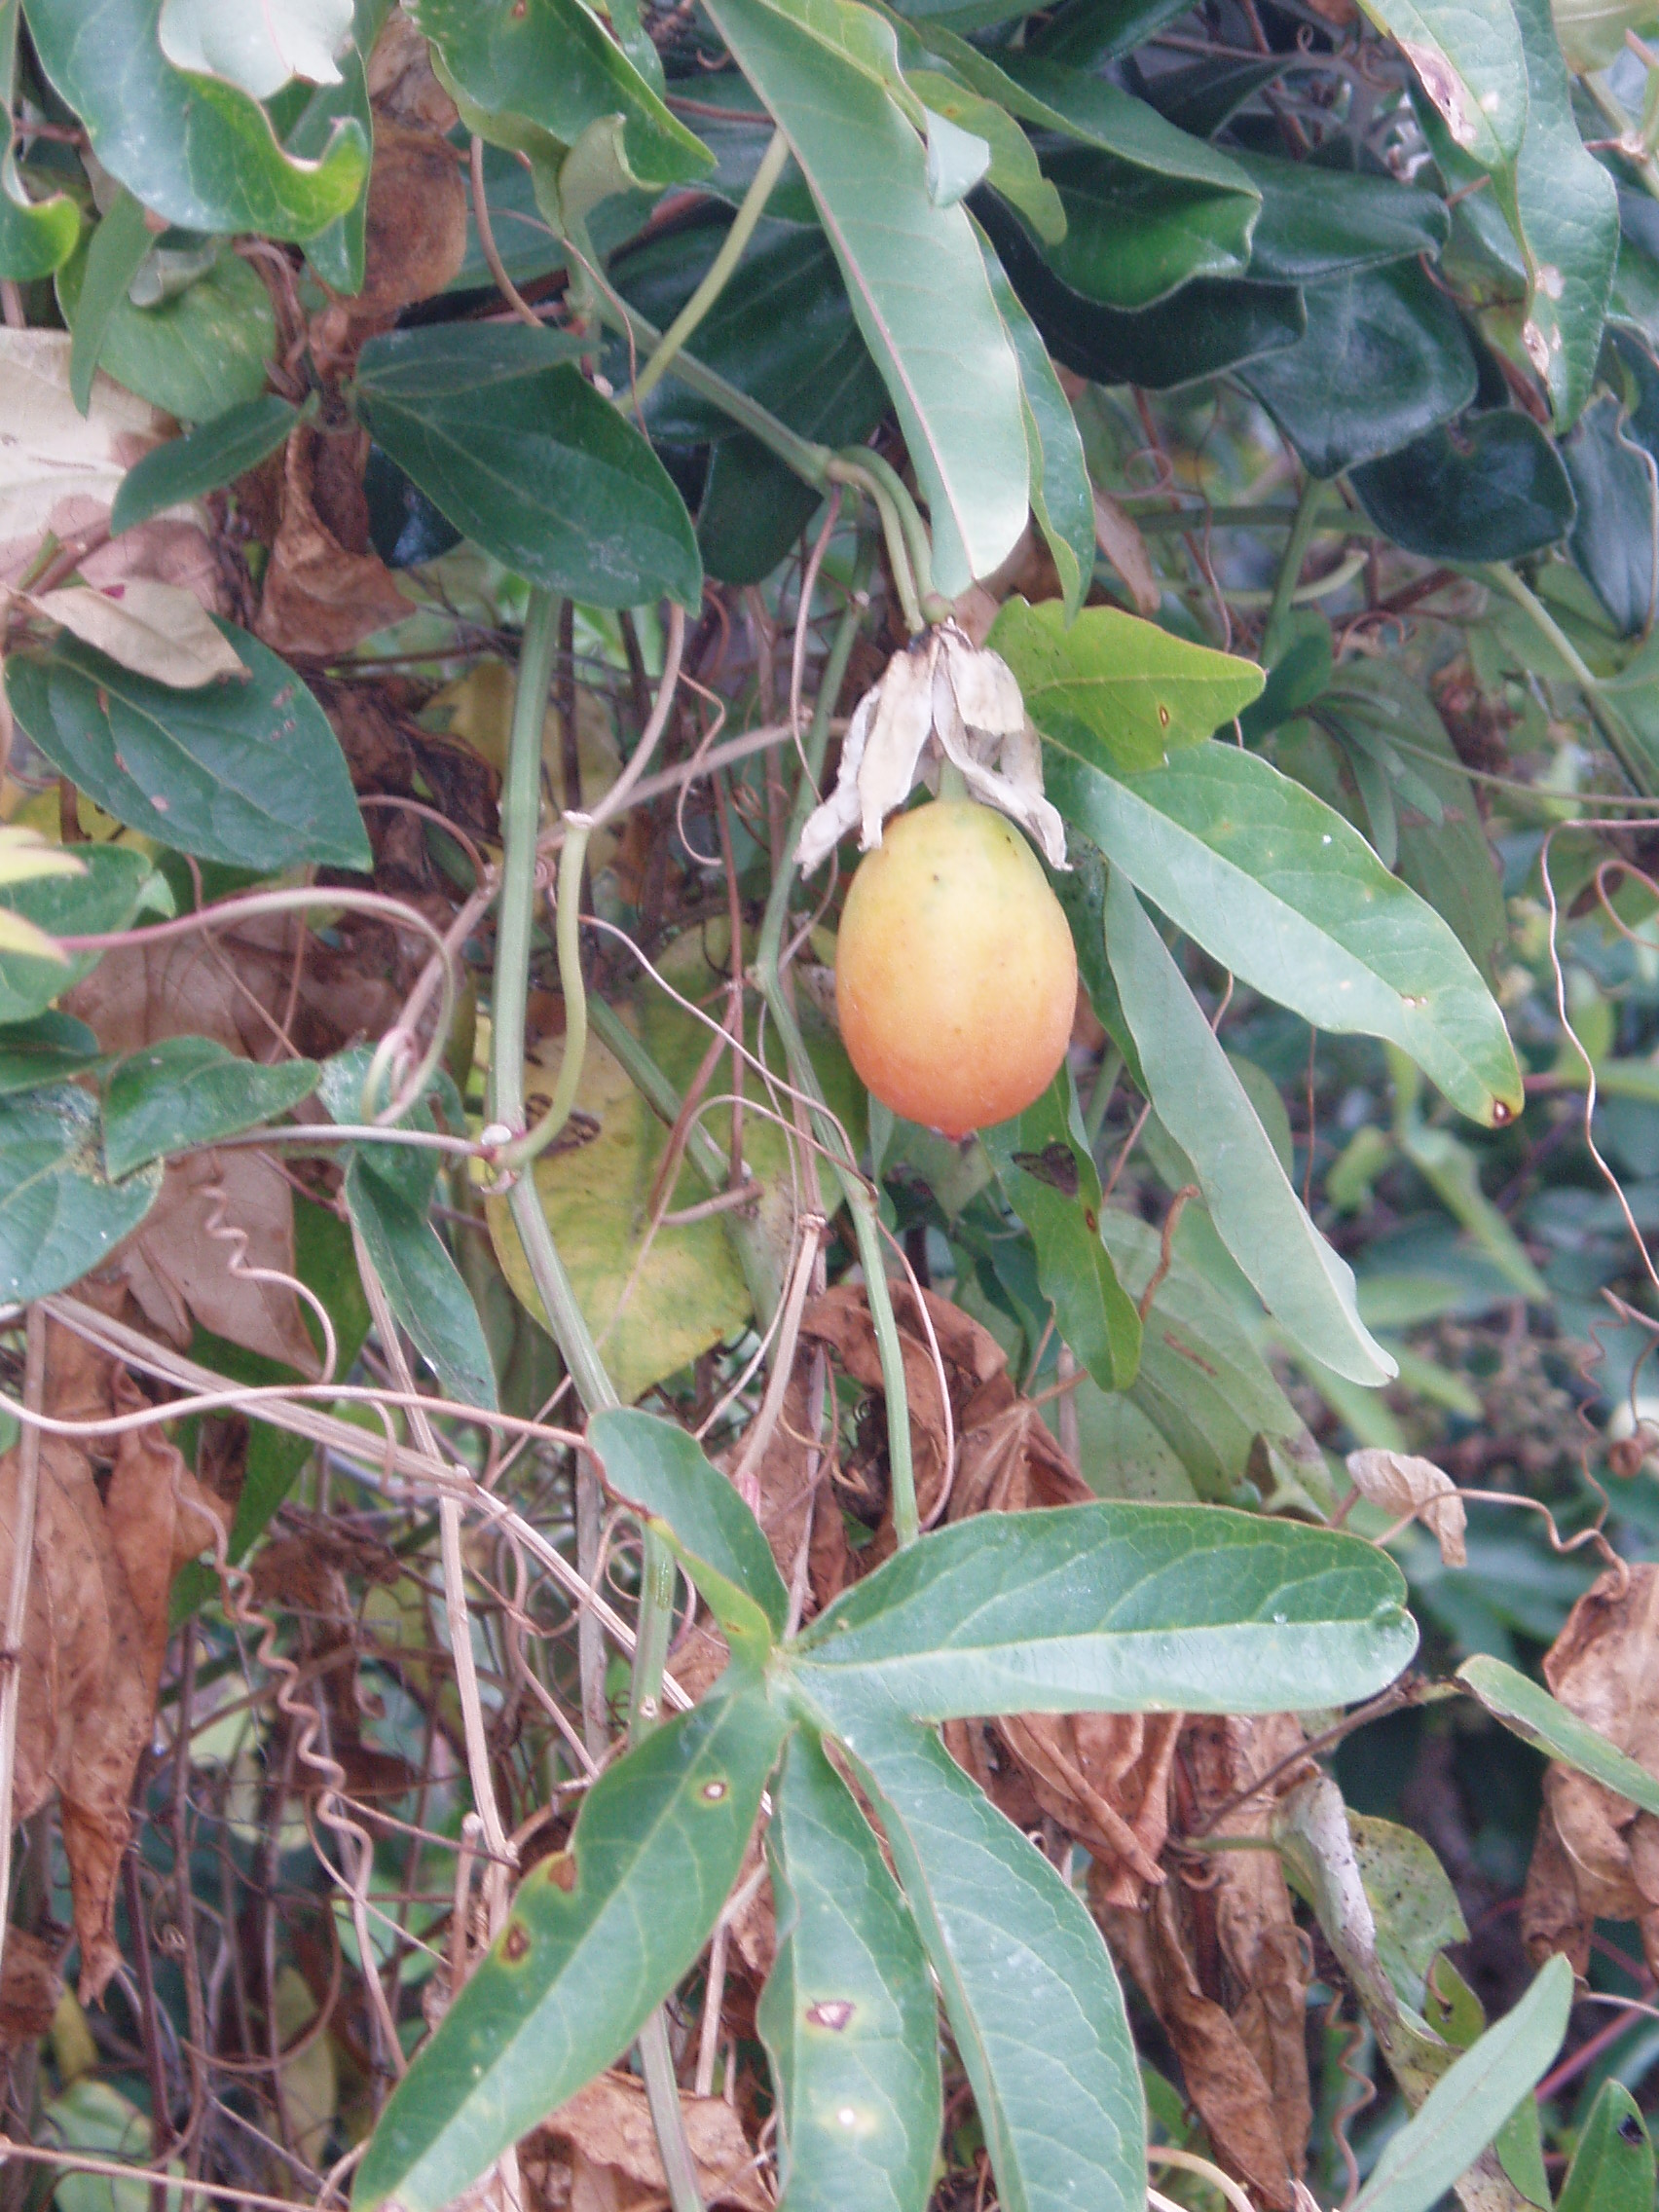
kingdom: Plantae
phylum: Tracheophyta
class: Magnoliopsida
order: Malpighiales
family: Passifloraceae
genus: Passiflora
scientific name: Passiflora caerulea
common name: Blue passionflower
